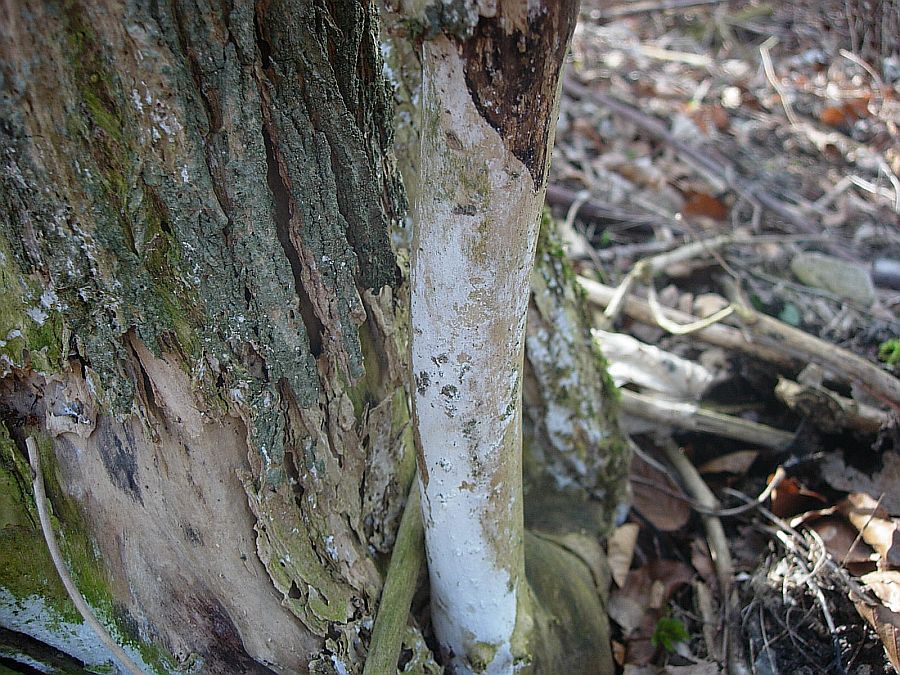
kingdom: Fungi
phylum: Basidiomycota
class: Agaricomycetes
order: Corticiales
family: Corticiaceae
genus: Lyomyces
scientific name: Lyomyces sambuci
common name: almindelig hyldehinde
